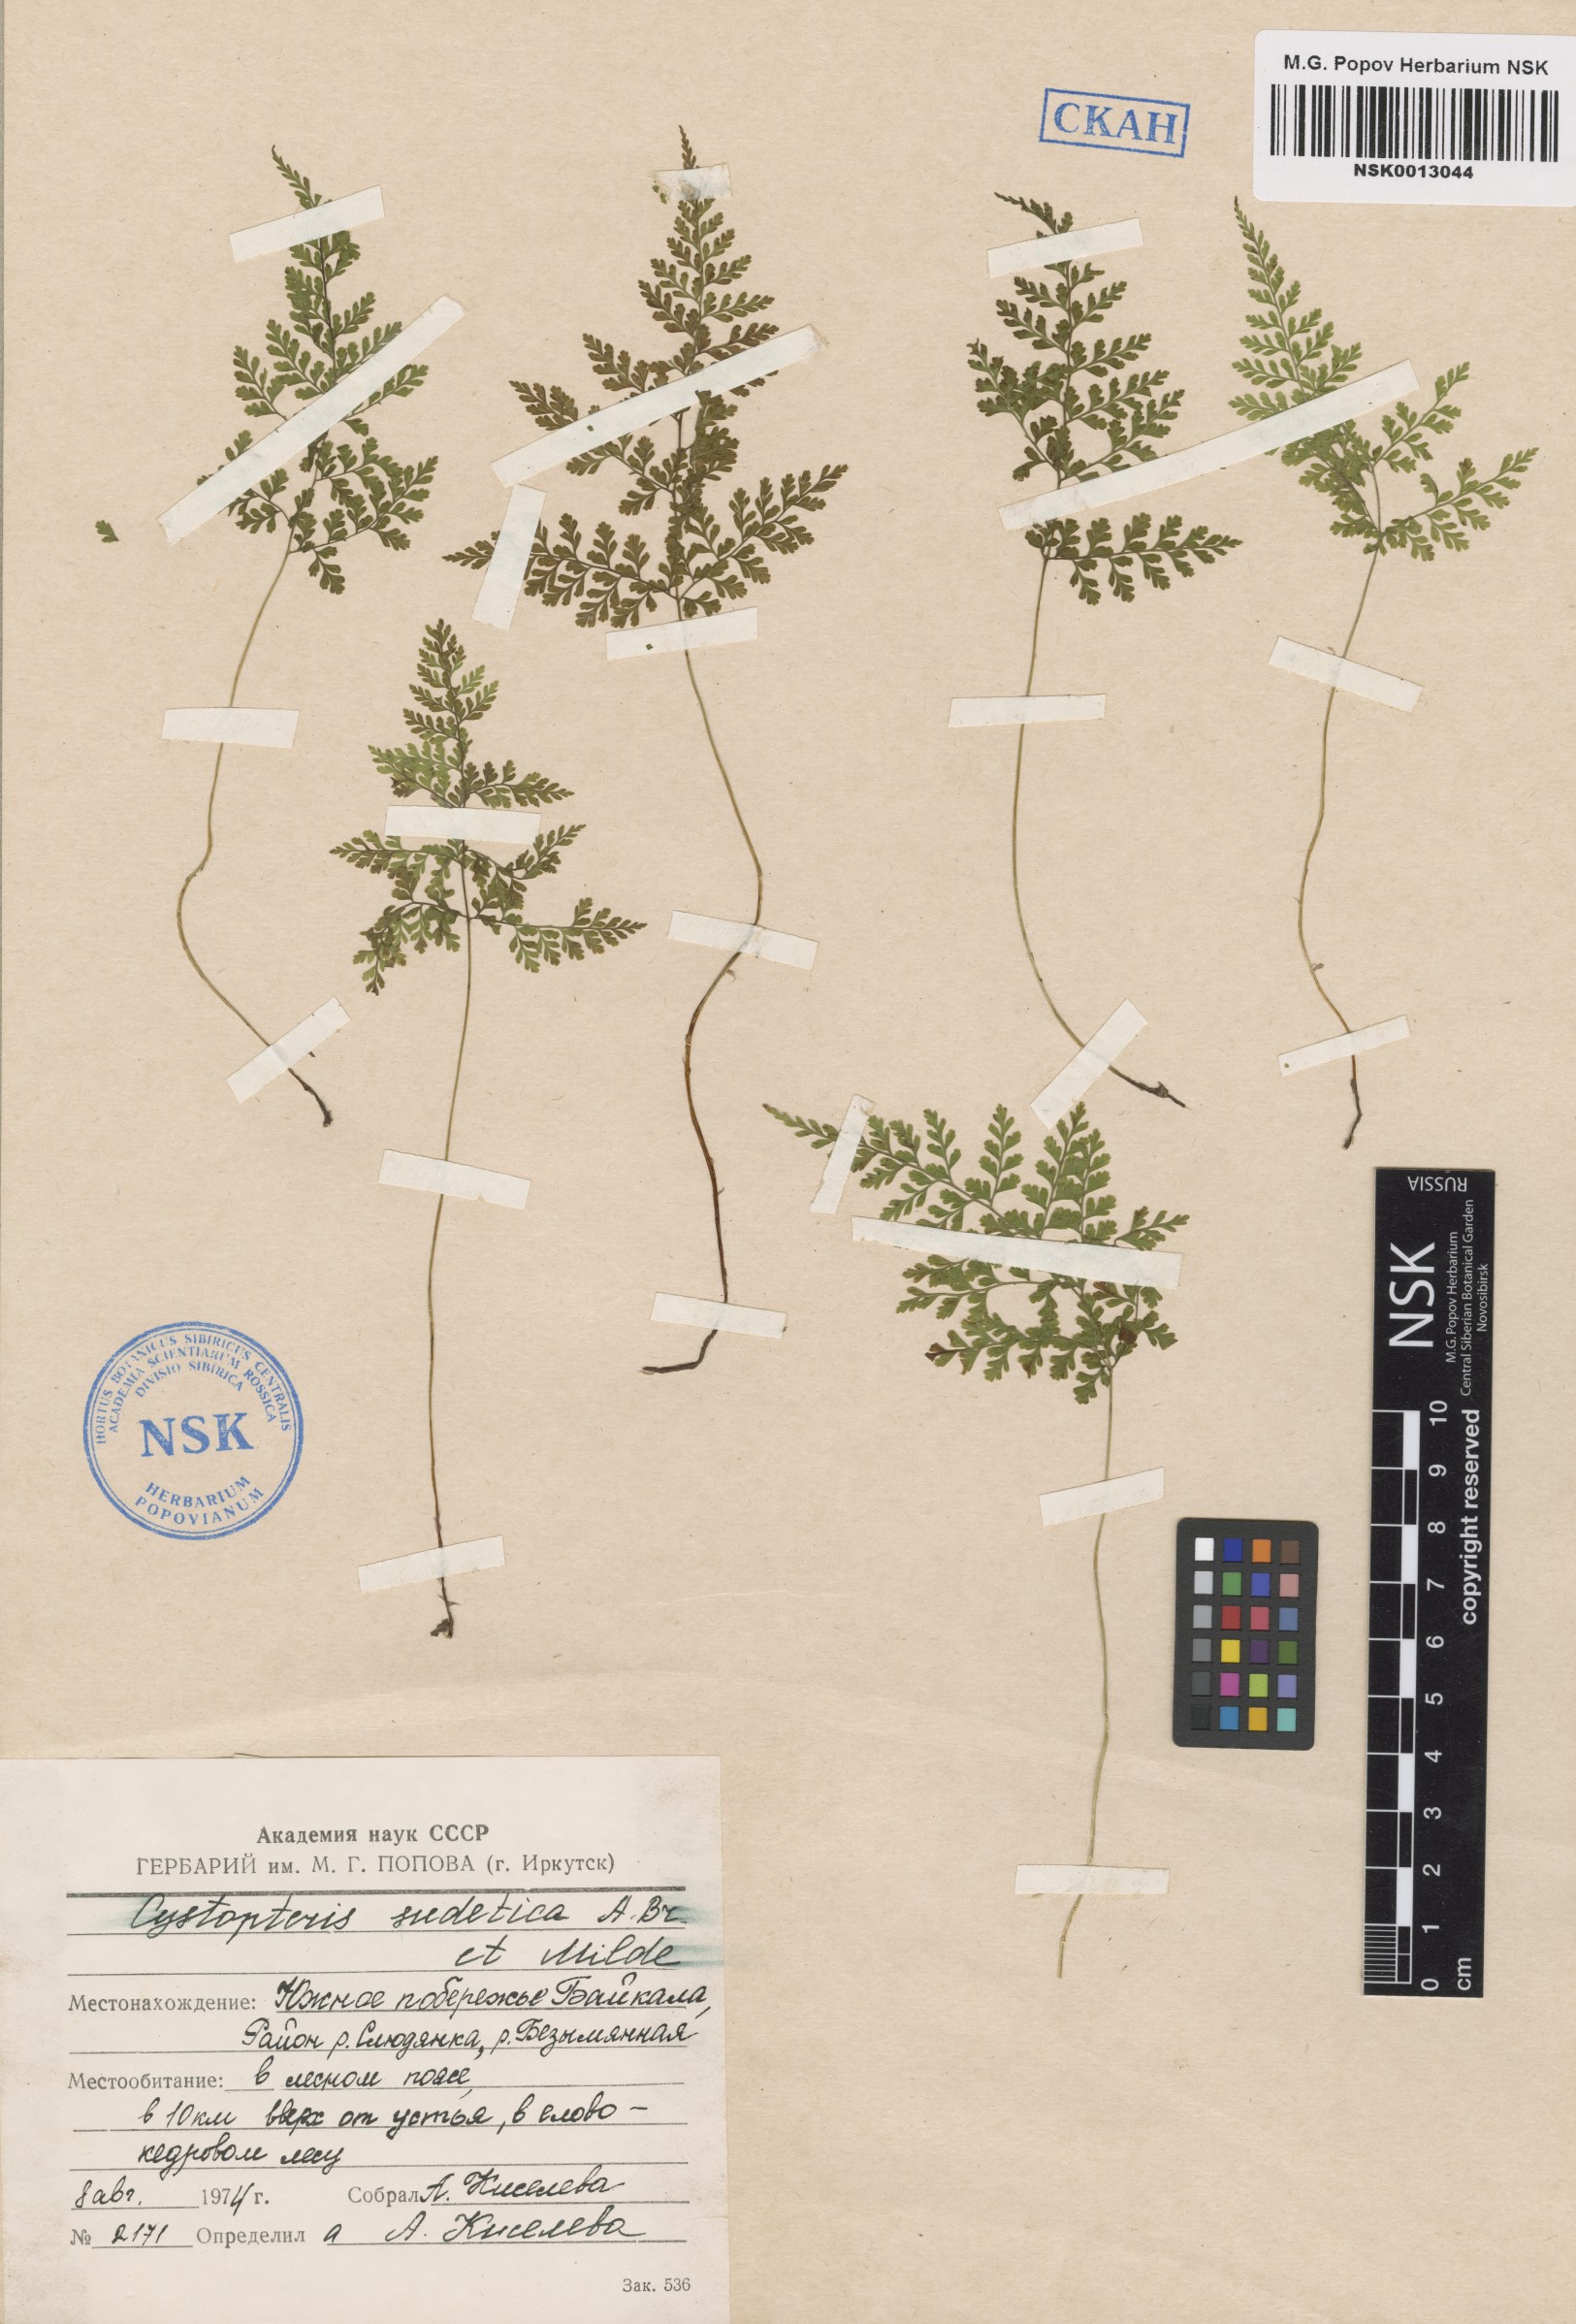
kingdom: Plantae
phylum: Tracheophyta
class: Polypodiopsida
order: Polypodiales
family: Cystopteridaceae
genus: Cystopteris
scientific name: Cystopteris sudetica
